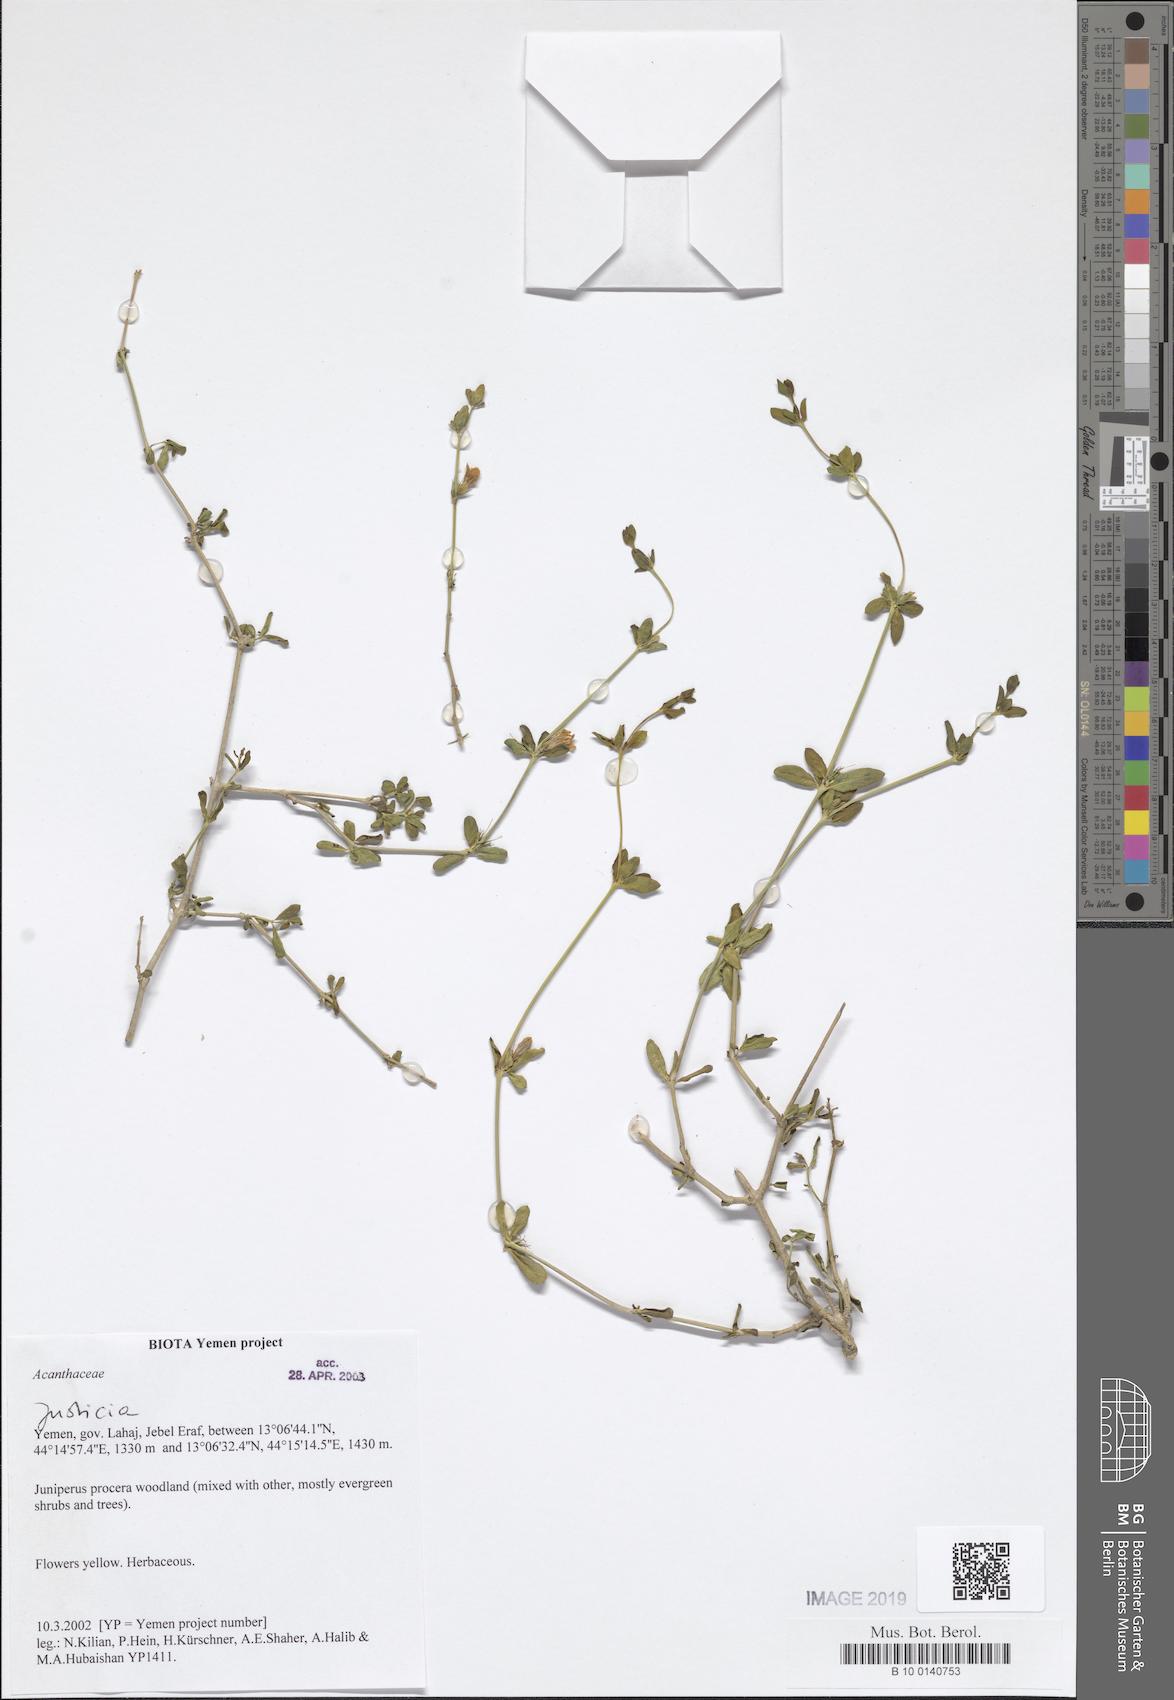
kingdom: Plantae
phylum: Tracheophyta
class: Magnoliopsida
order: Lamiales
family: Acanthaceae
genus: Justicia
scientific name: Justicia
